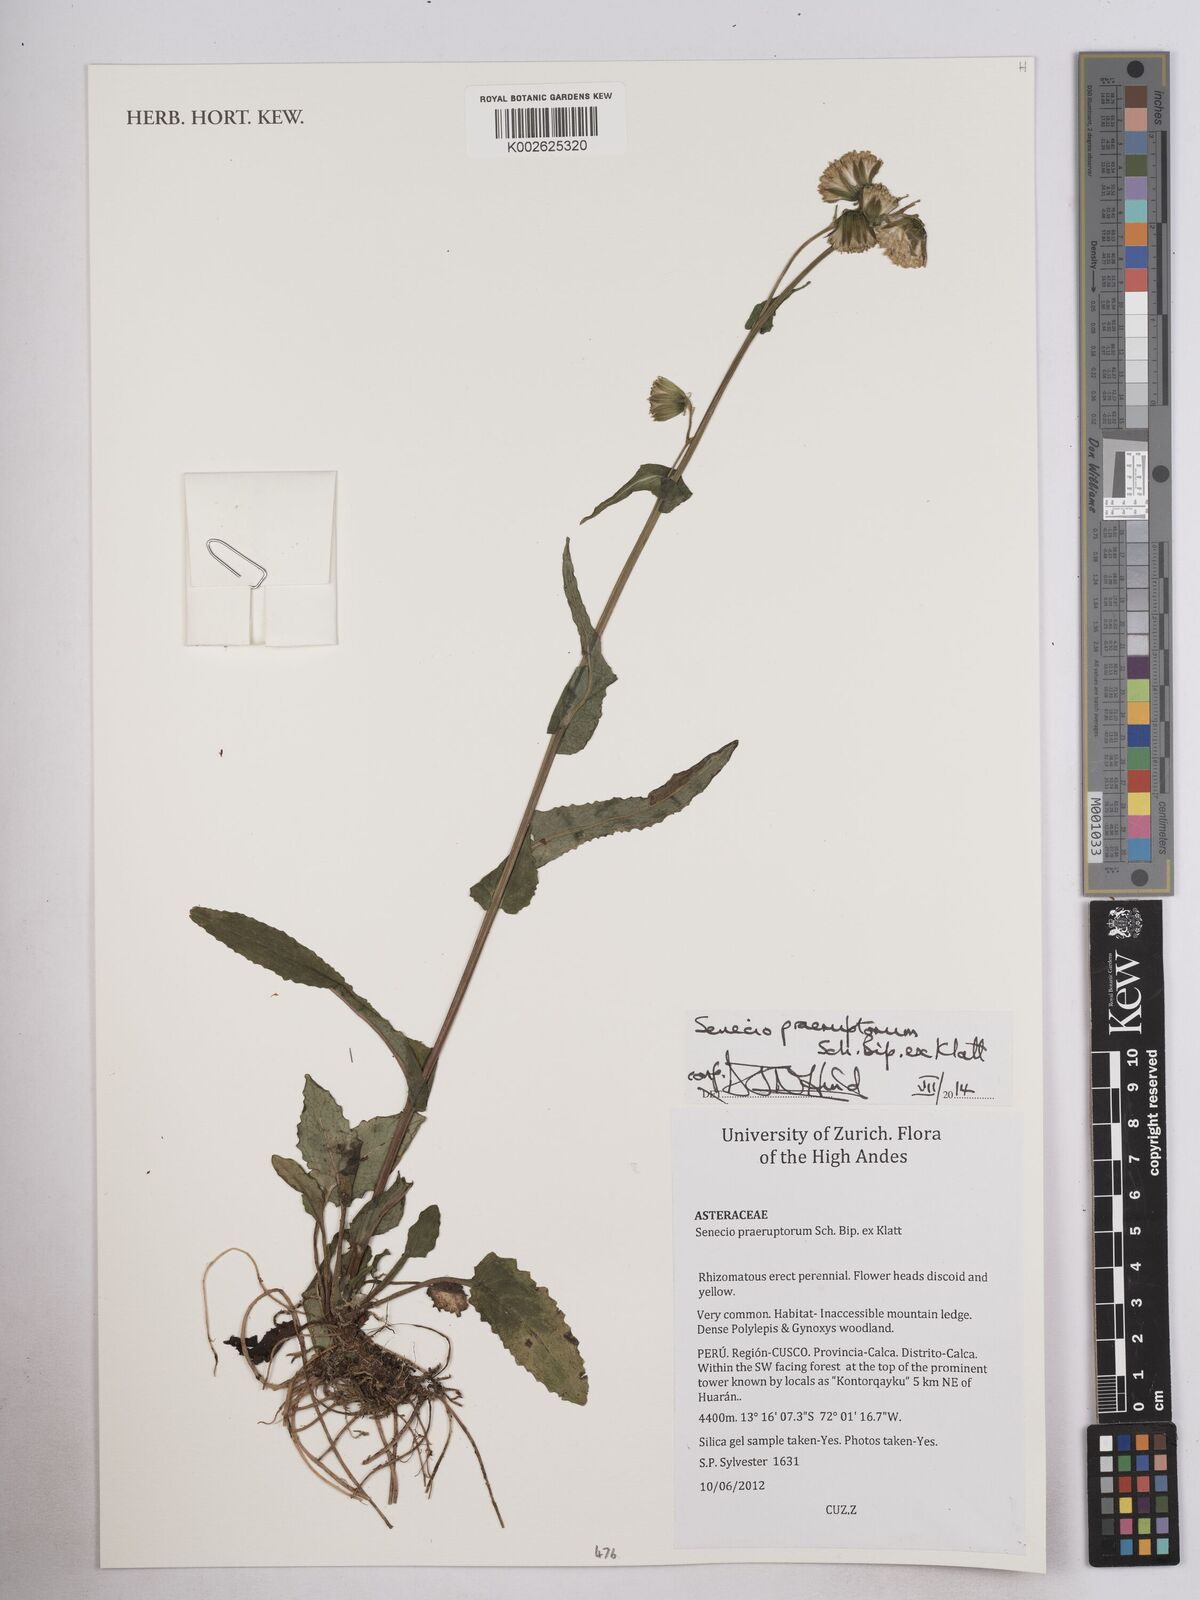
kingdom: Plantae
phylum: Tracheophyta
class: Magnoliopsida
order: Asterales
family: Asteraceae
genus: Senecio
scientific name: Senecio praeruptorum
